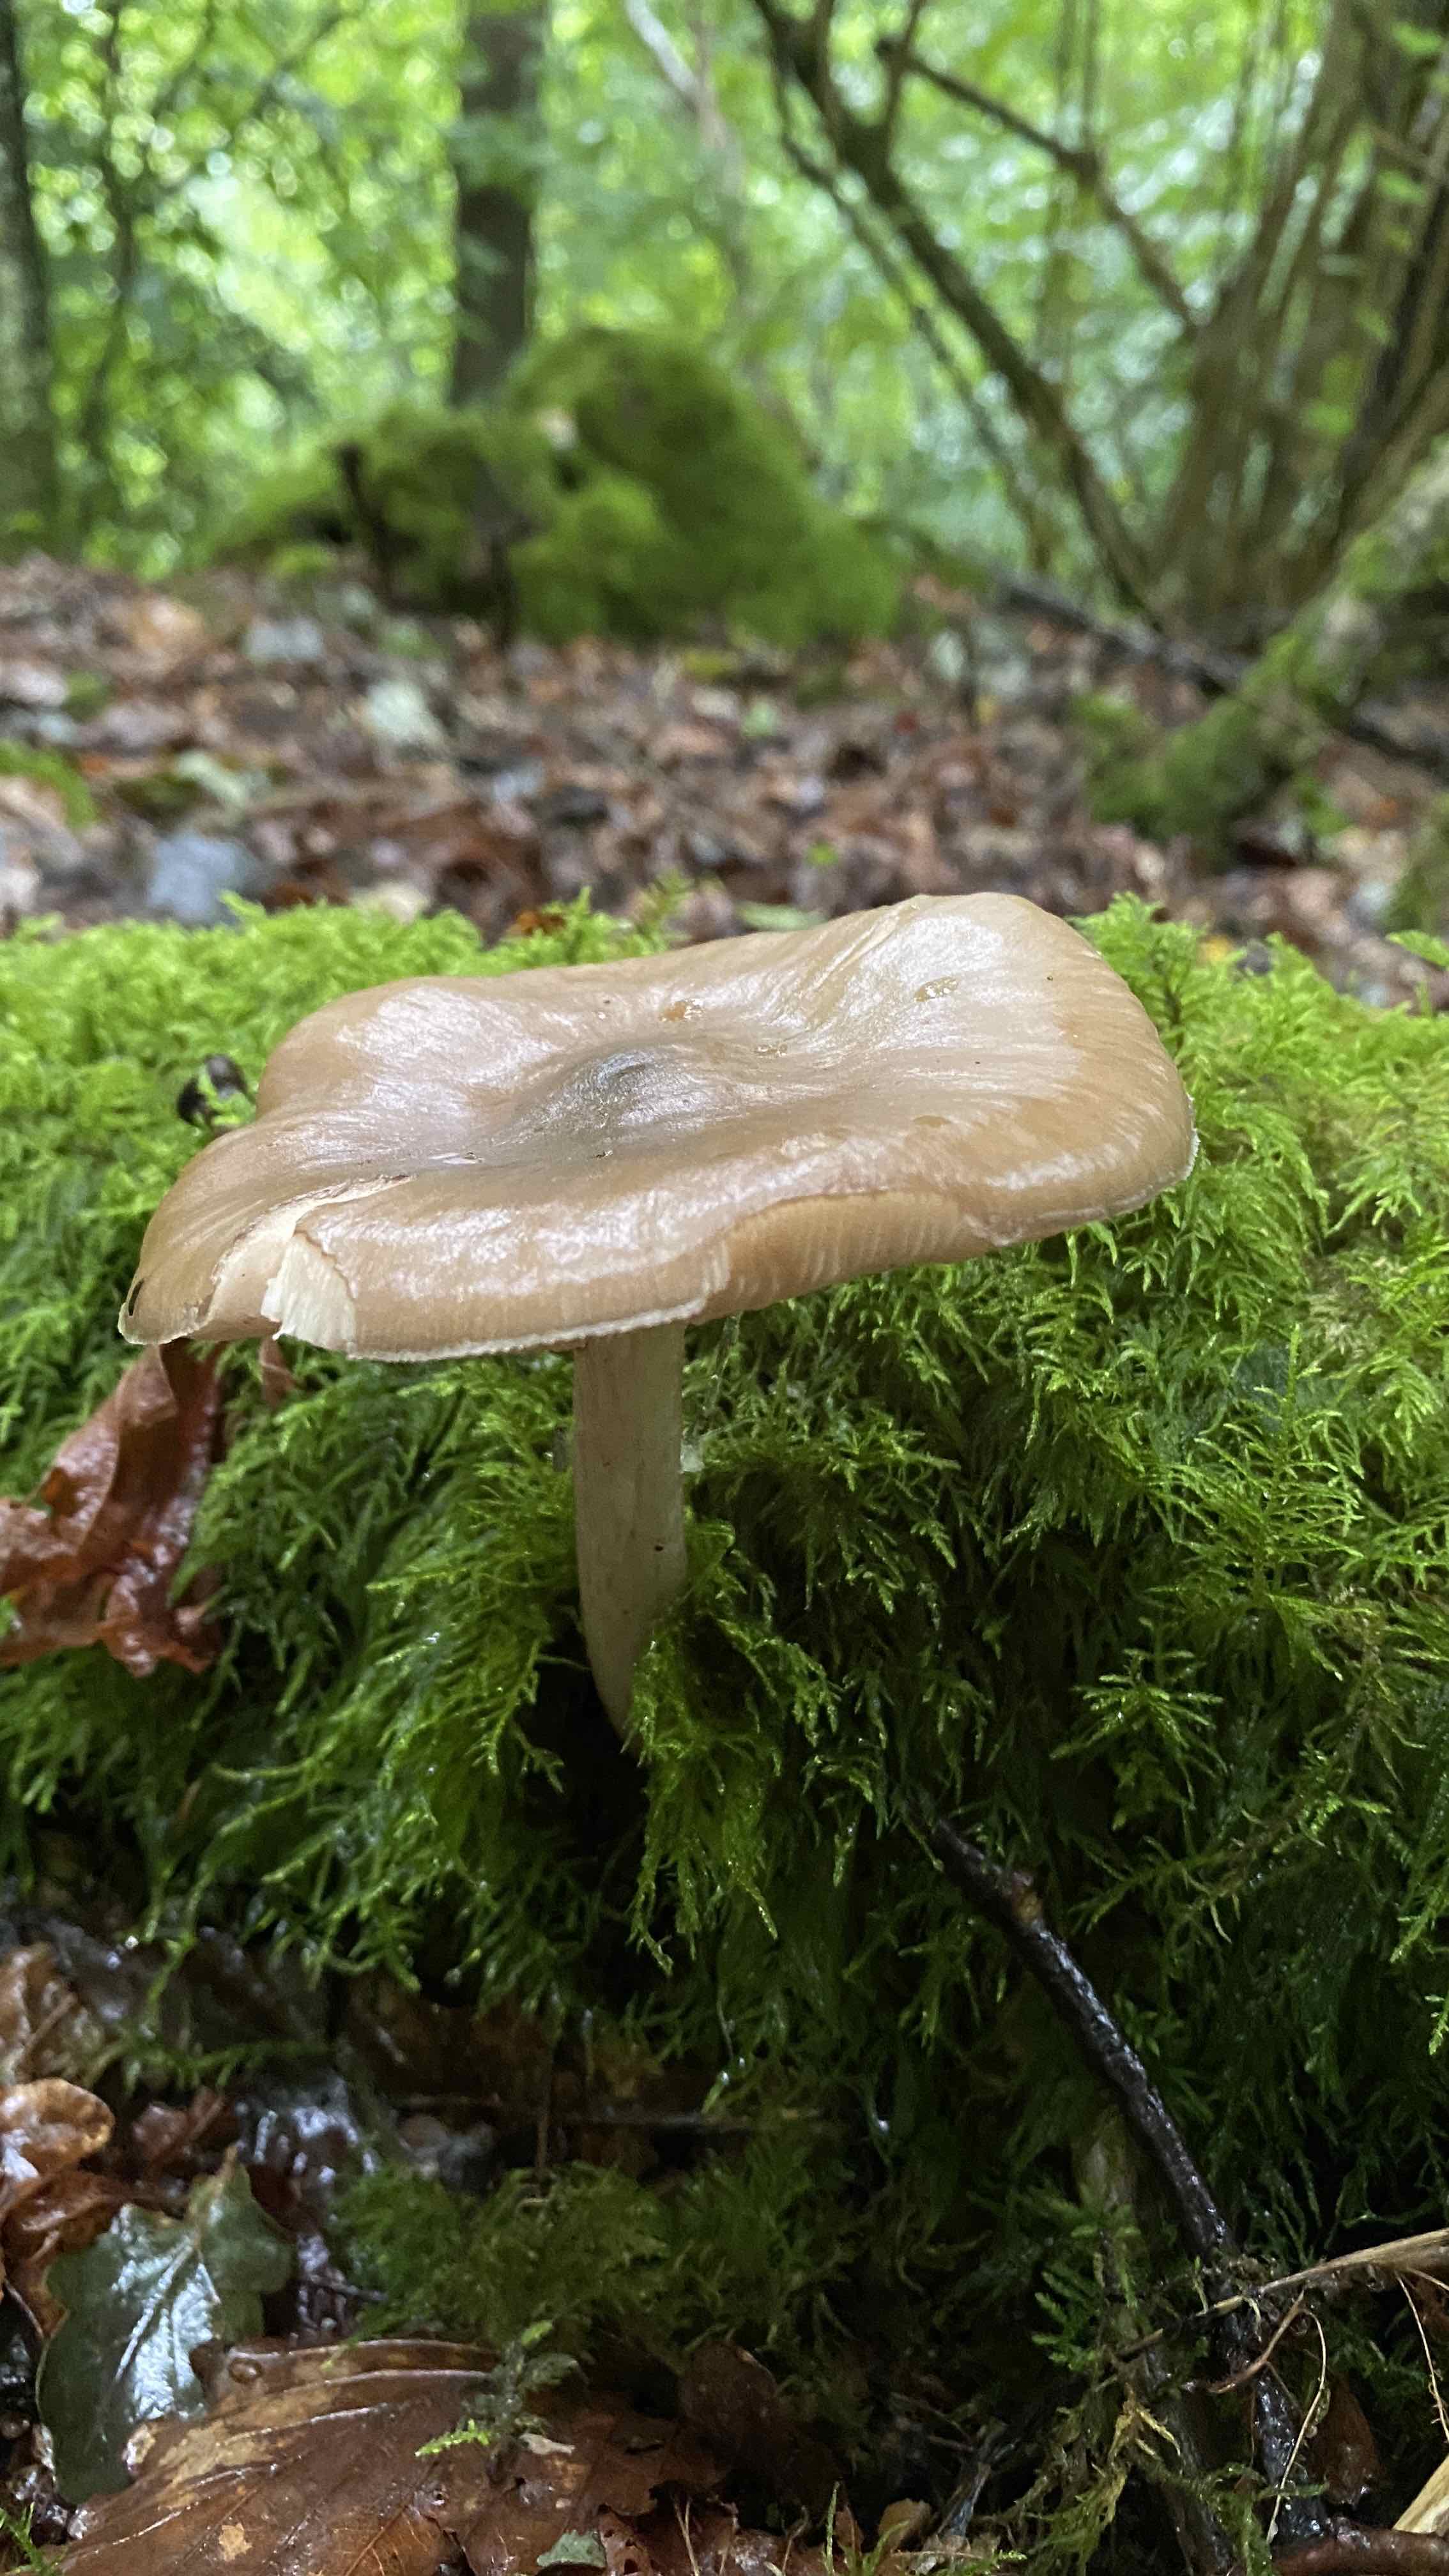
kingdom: Fungi
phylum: Basidiomycota
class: Agaricomycetes
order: Agaricales
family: Pluteaceae
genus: Pluteus
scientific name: Pluteus cervinus
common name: sodfarvet skærmhat
